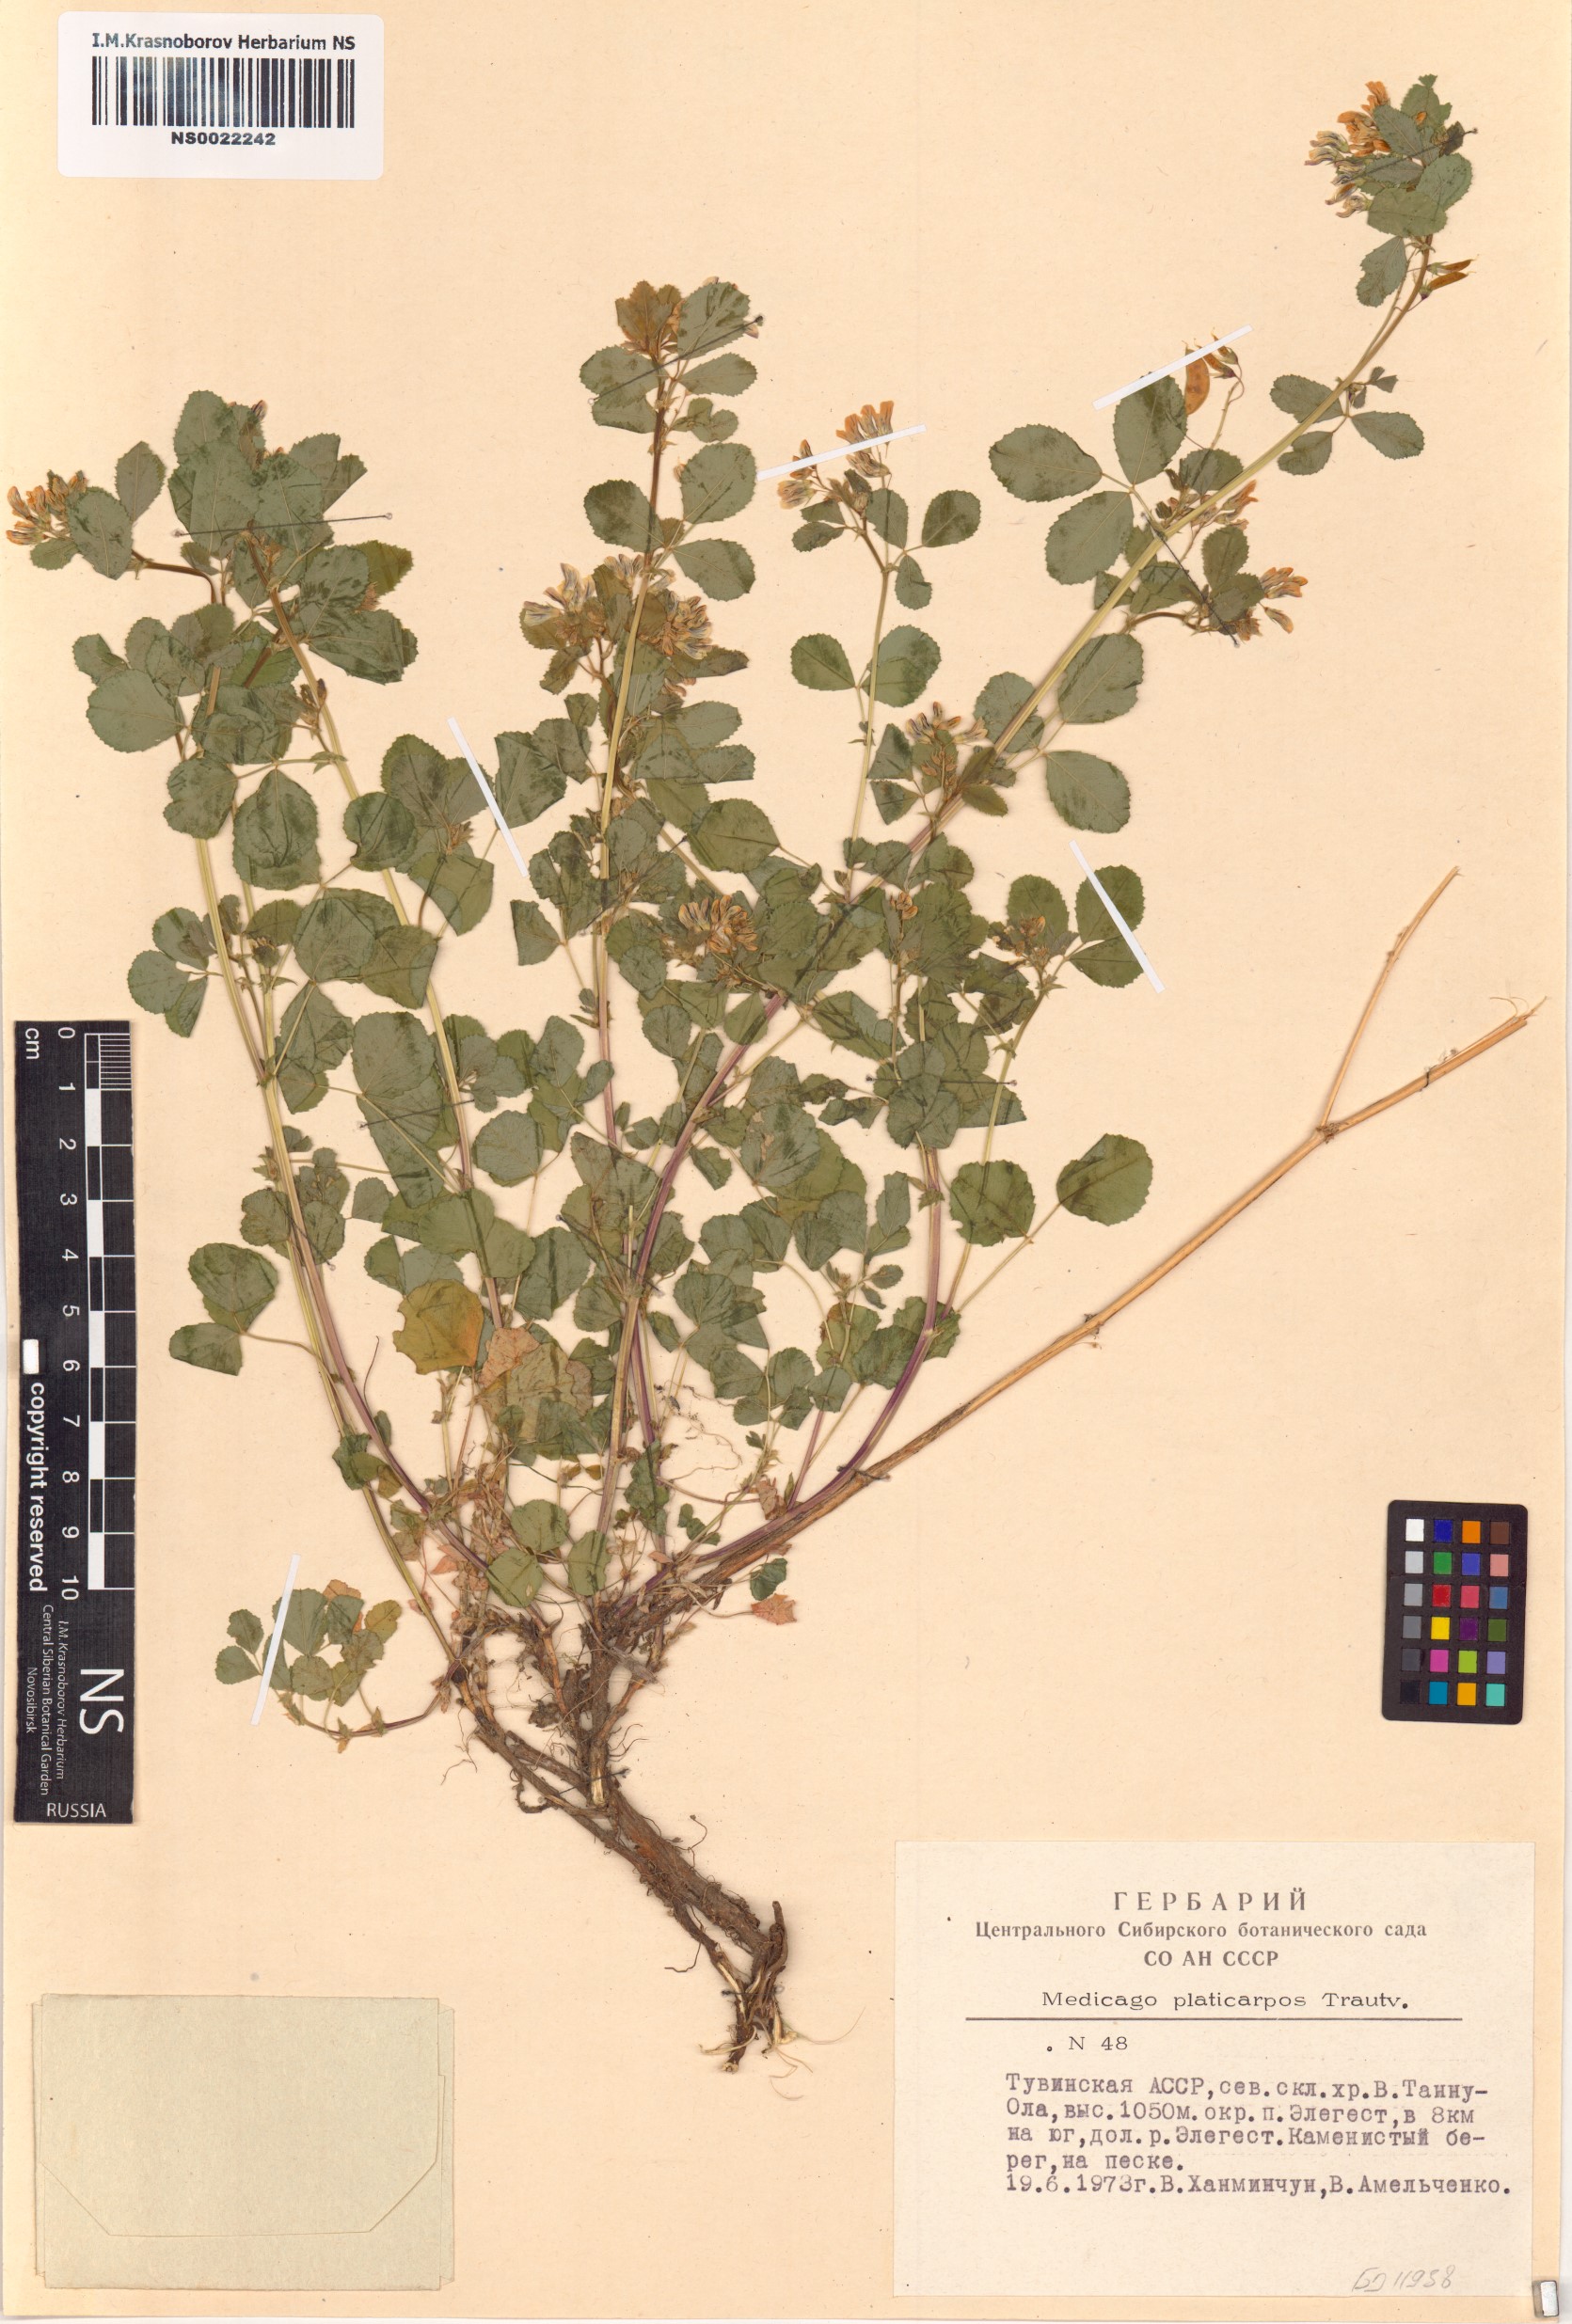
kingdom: Plantae
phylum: Tracheophyta
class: Magnoliopsida
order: Fabales
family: Fabaceae
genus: Medicago
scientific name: Medicago platycarpos
